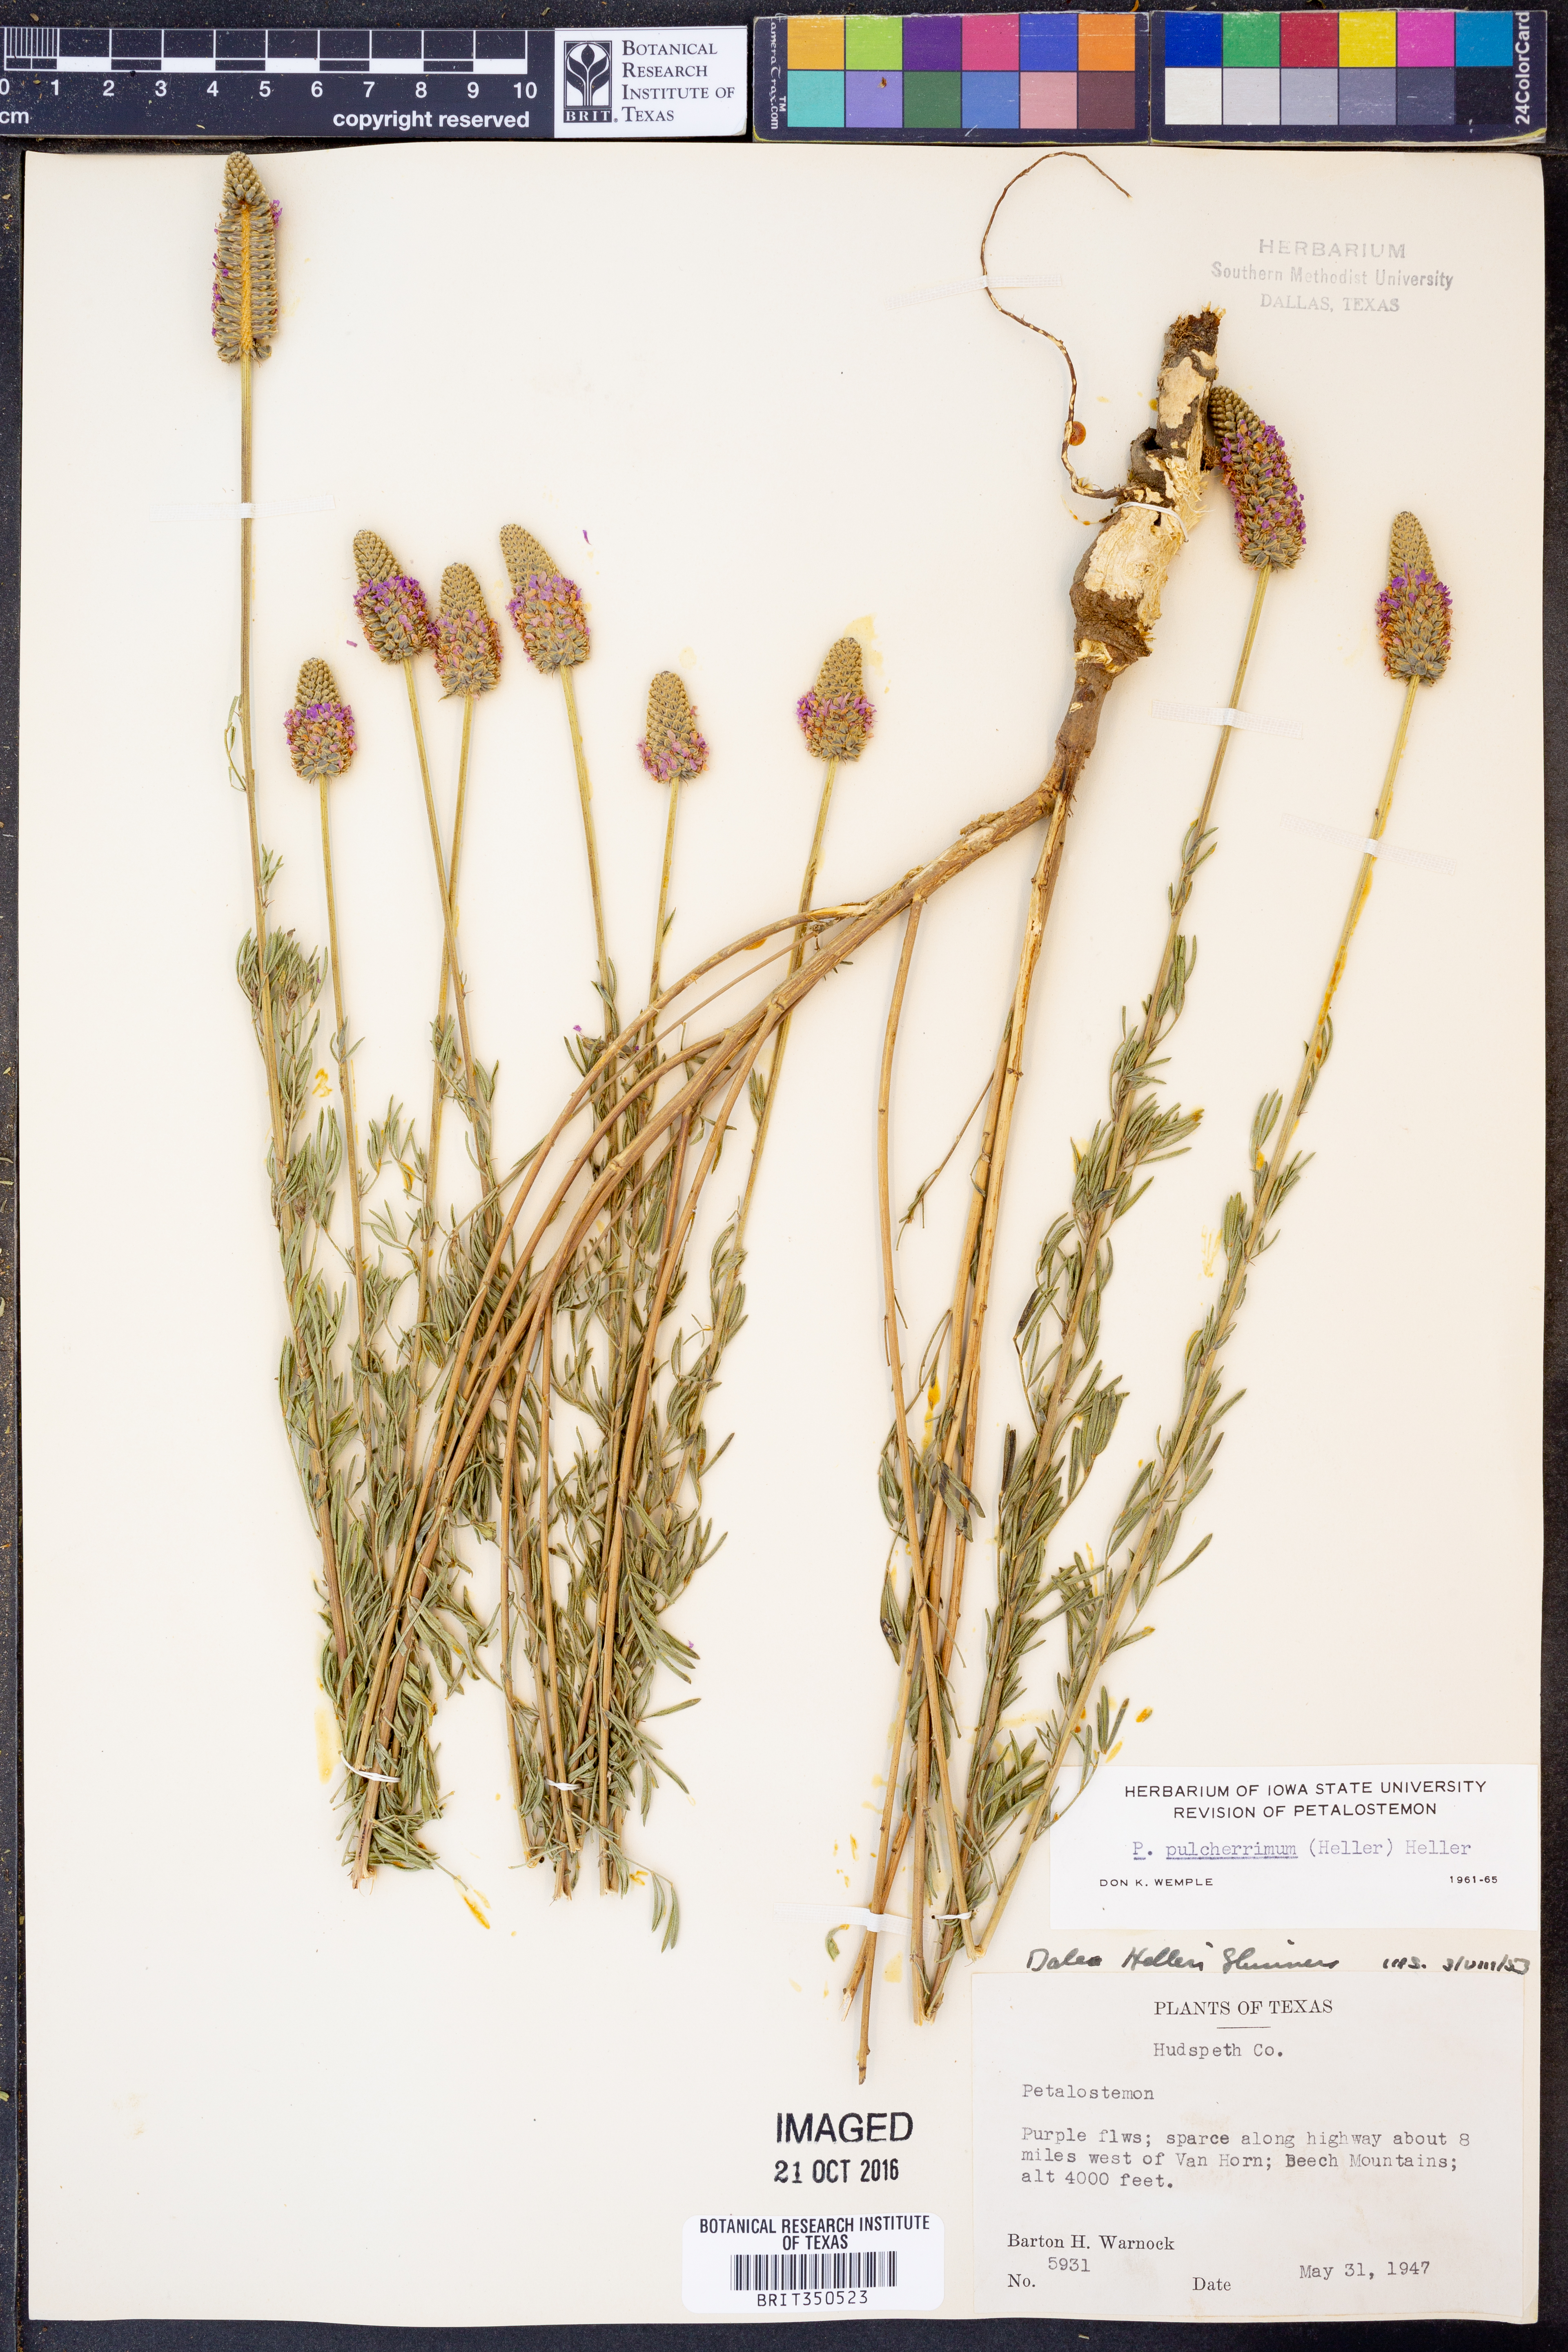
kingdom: Plantae
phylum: Tracheophyta
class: Magnoliopsida
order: Fabales
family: Fabaceae
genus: Dalea
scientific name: Dalea compacta
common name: Compact prairie-clover
